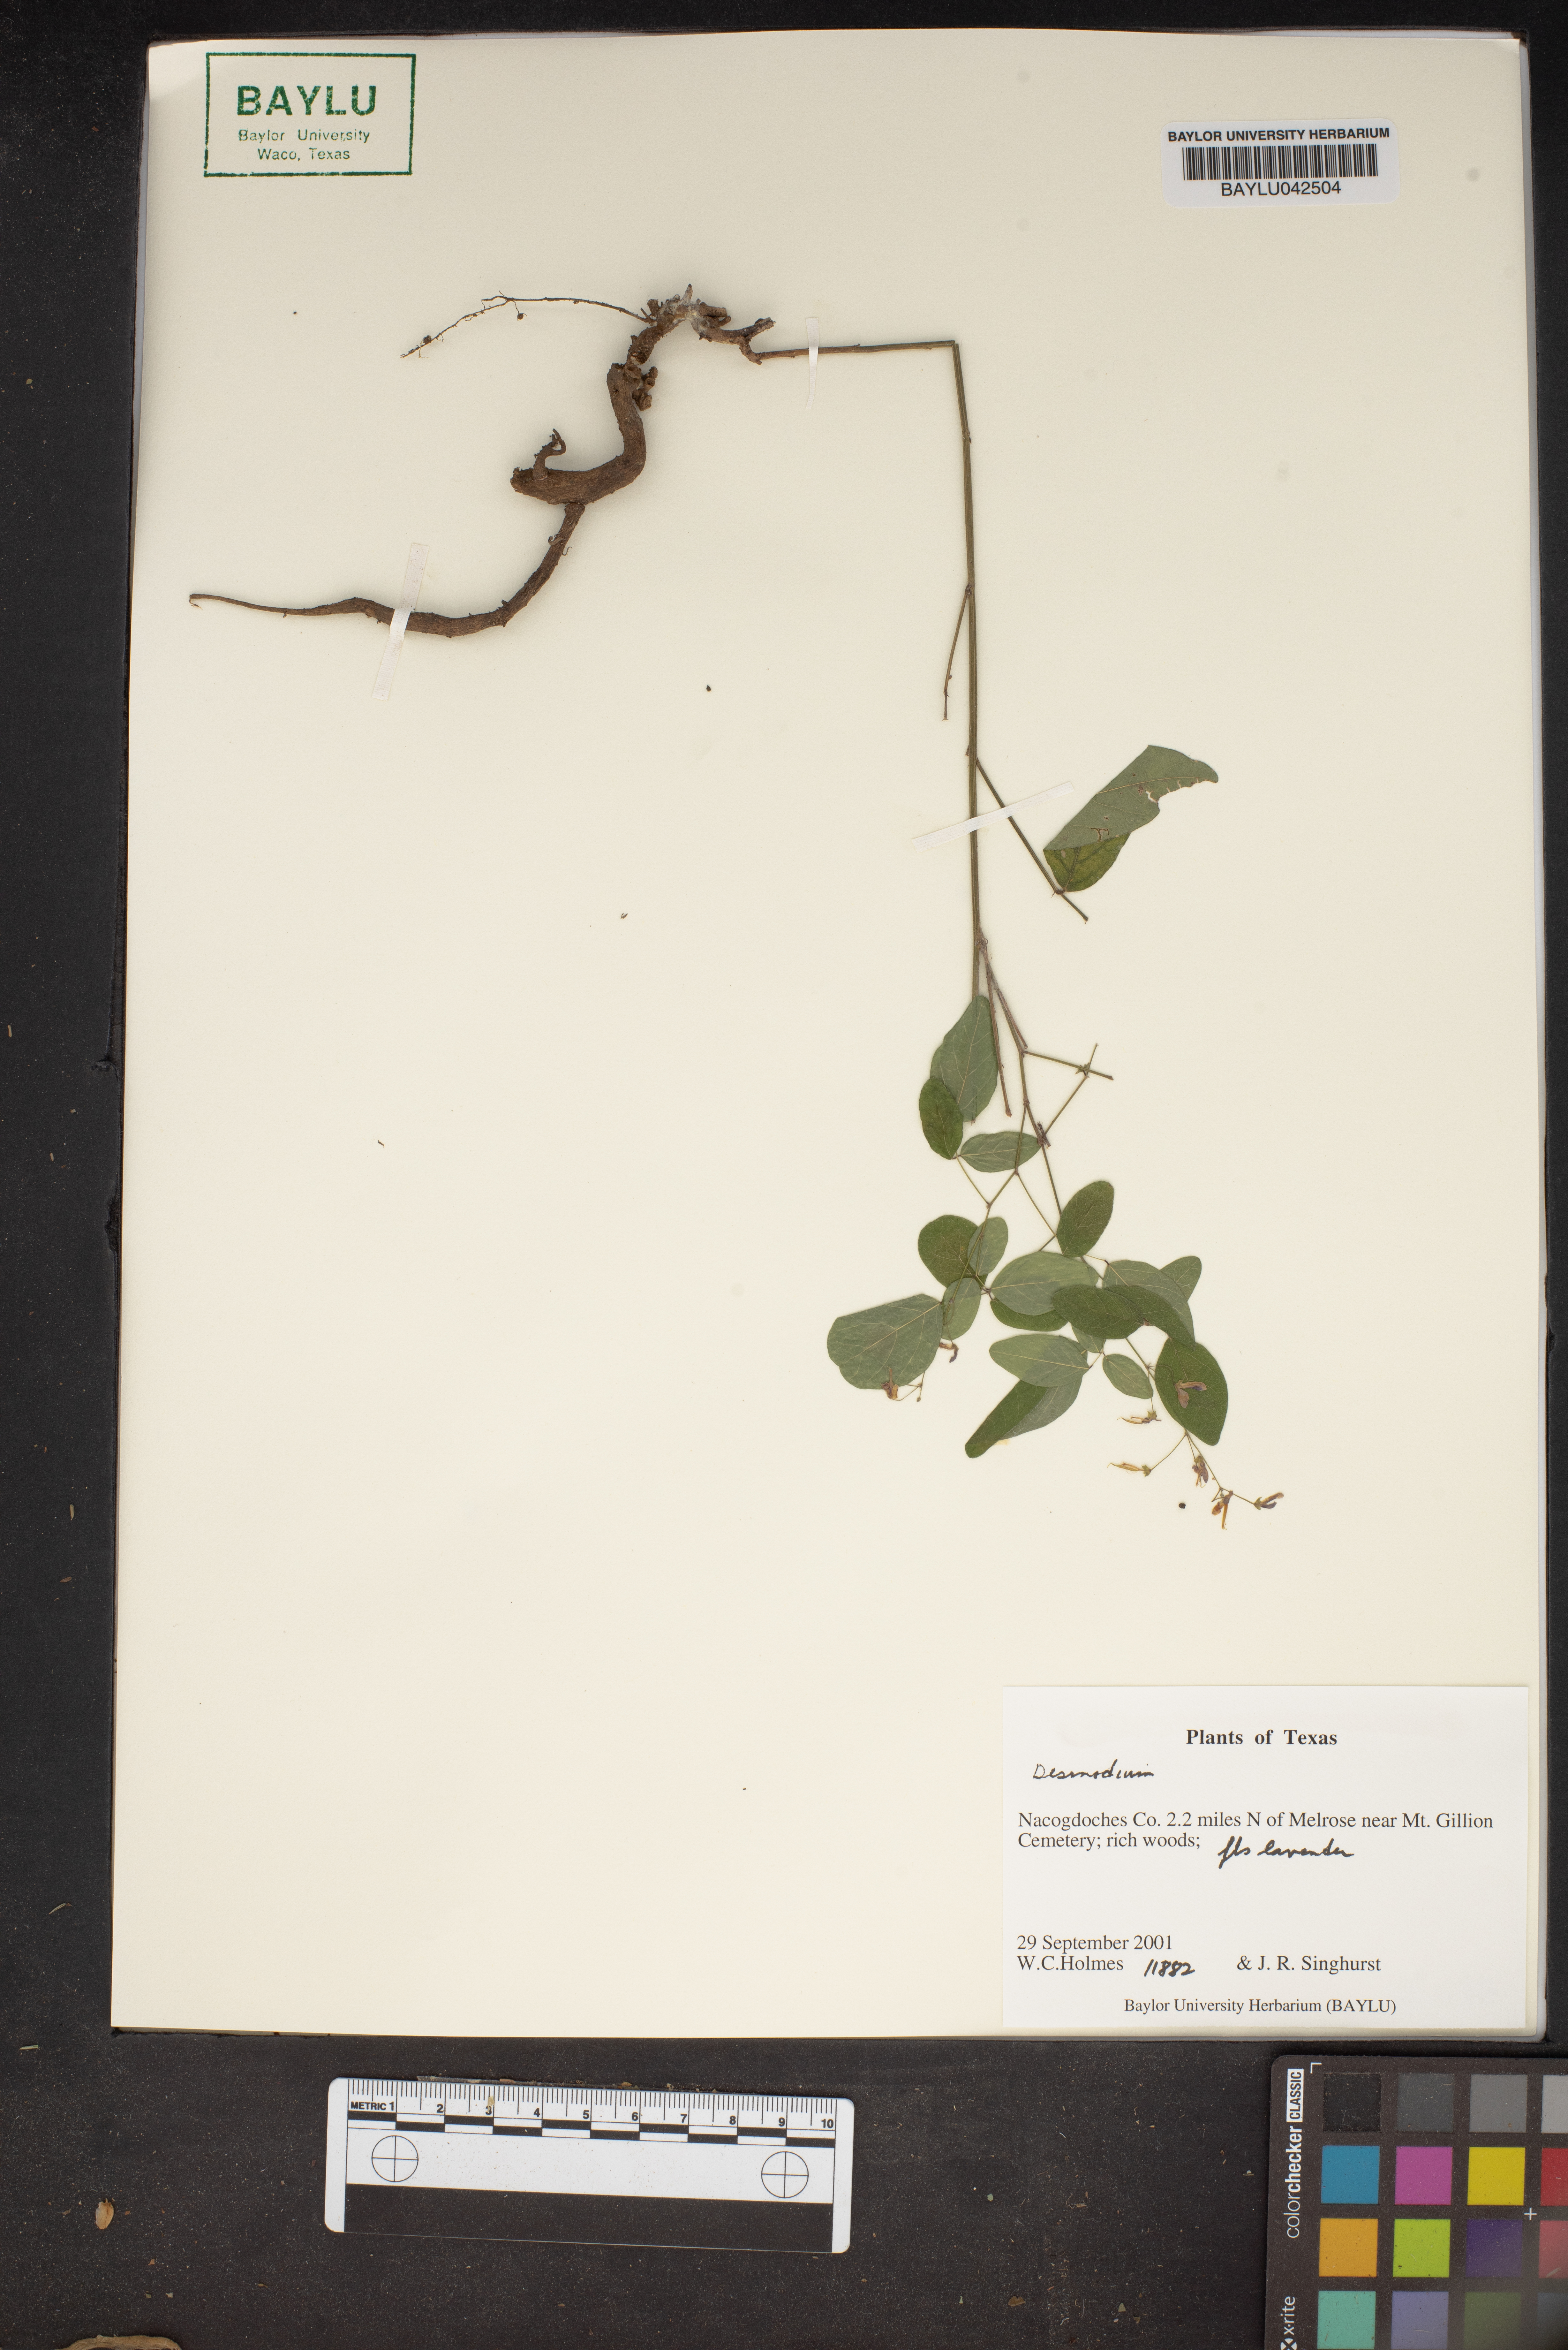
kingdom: Plantae
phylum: Tracheophyta
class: Magnoliopsida
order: Fabales
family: Fabaceae
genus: Desmodium
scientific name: Desmodium
